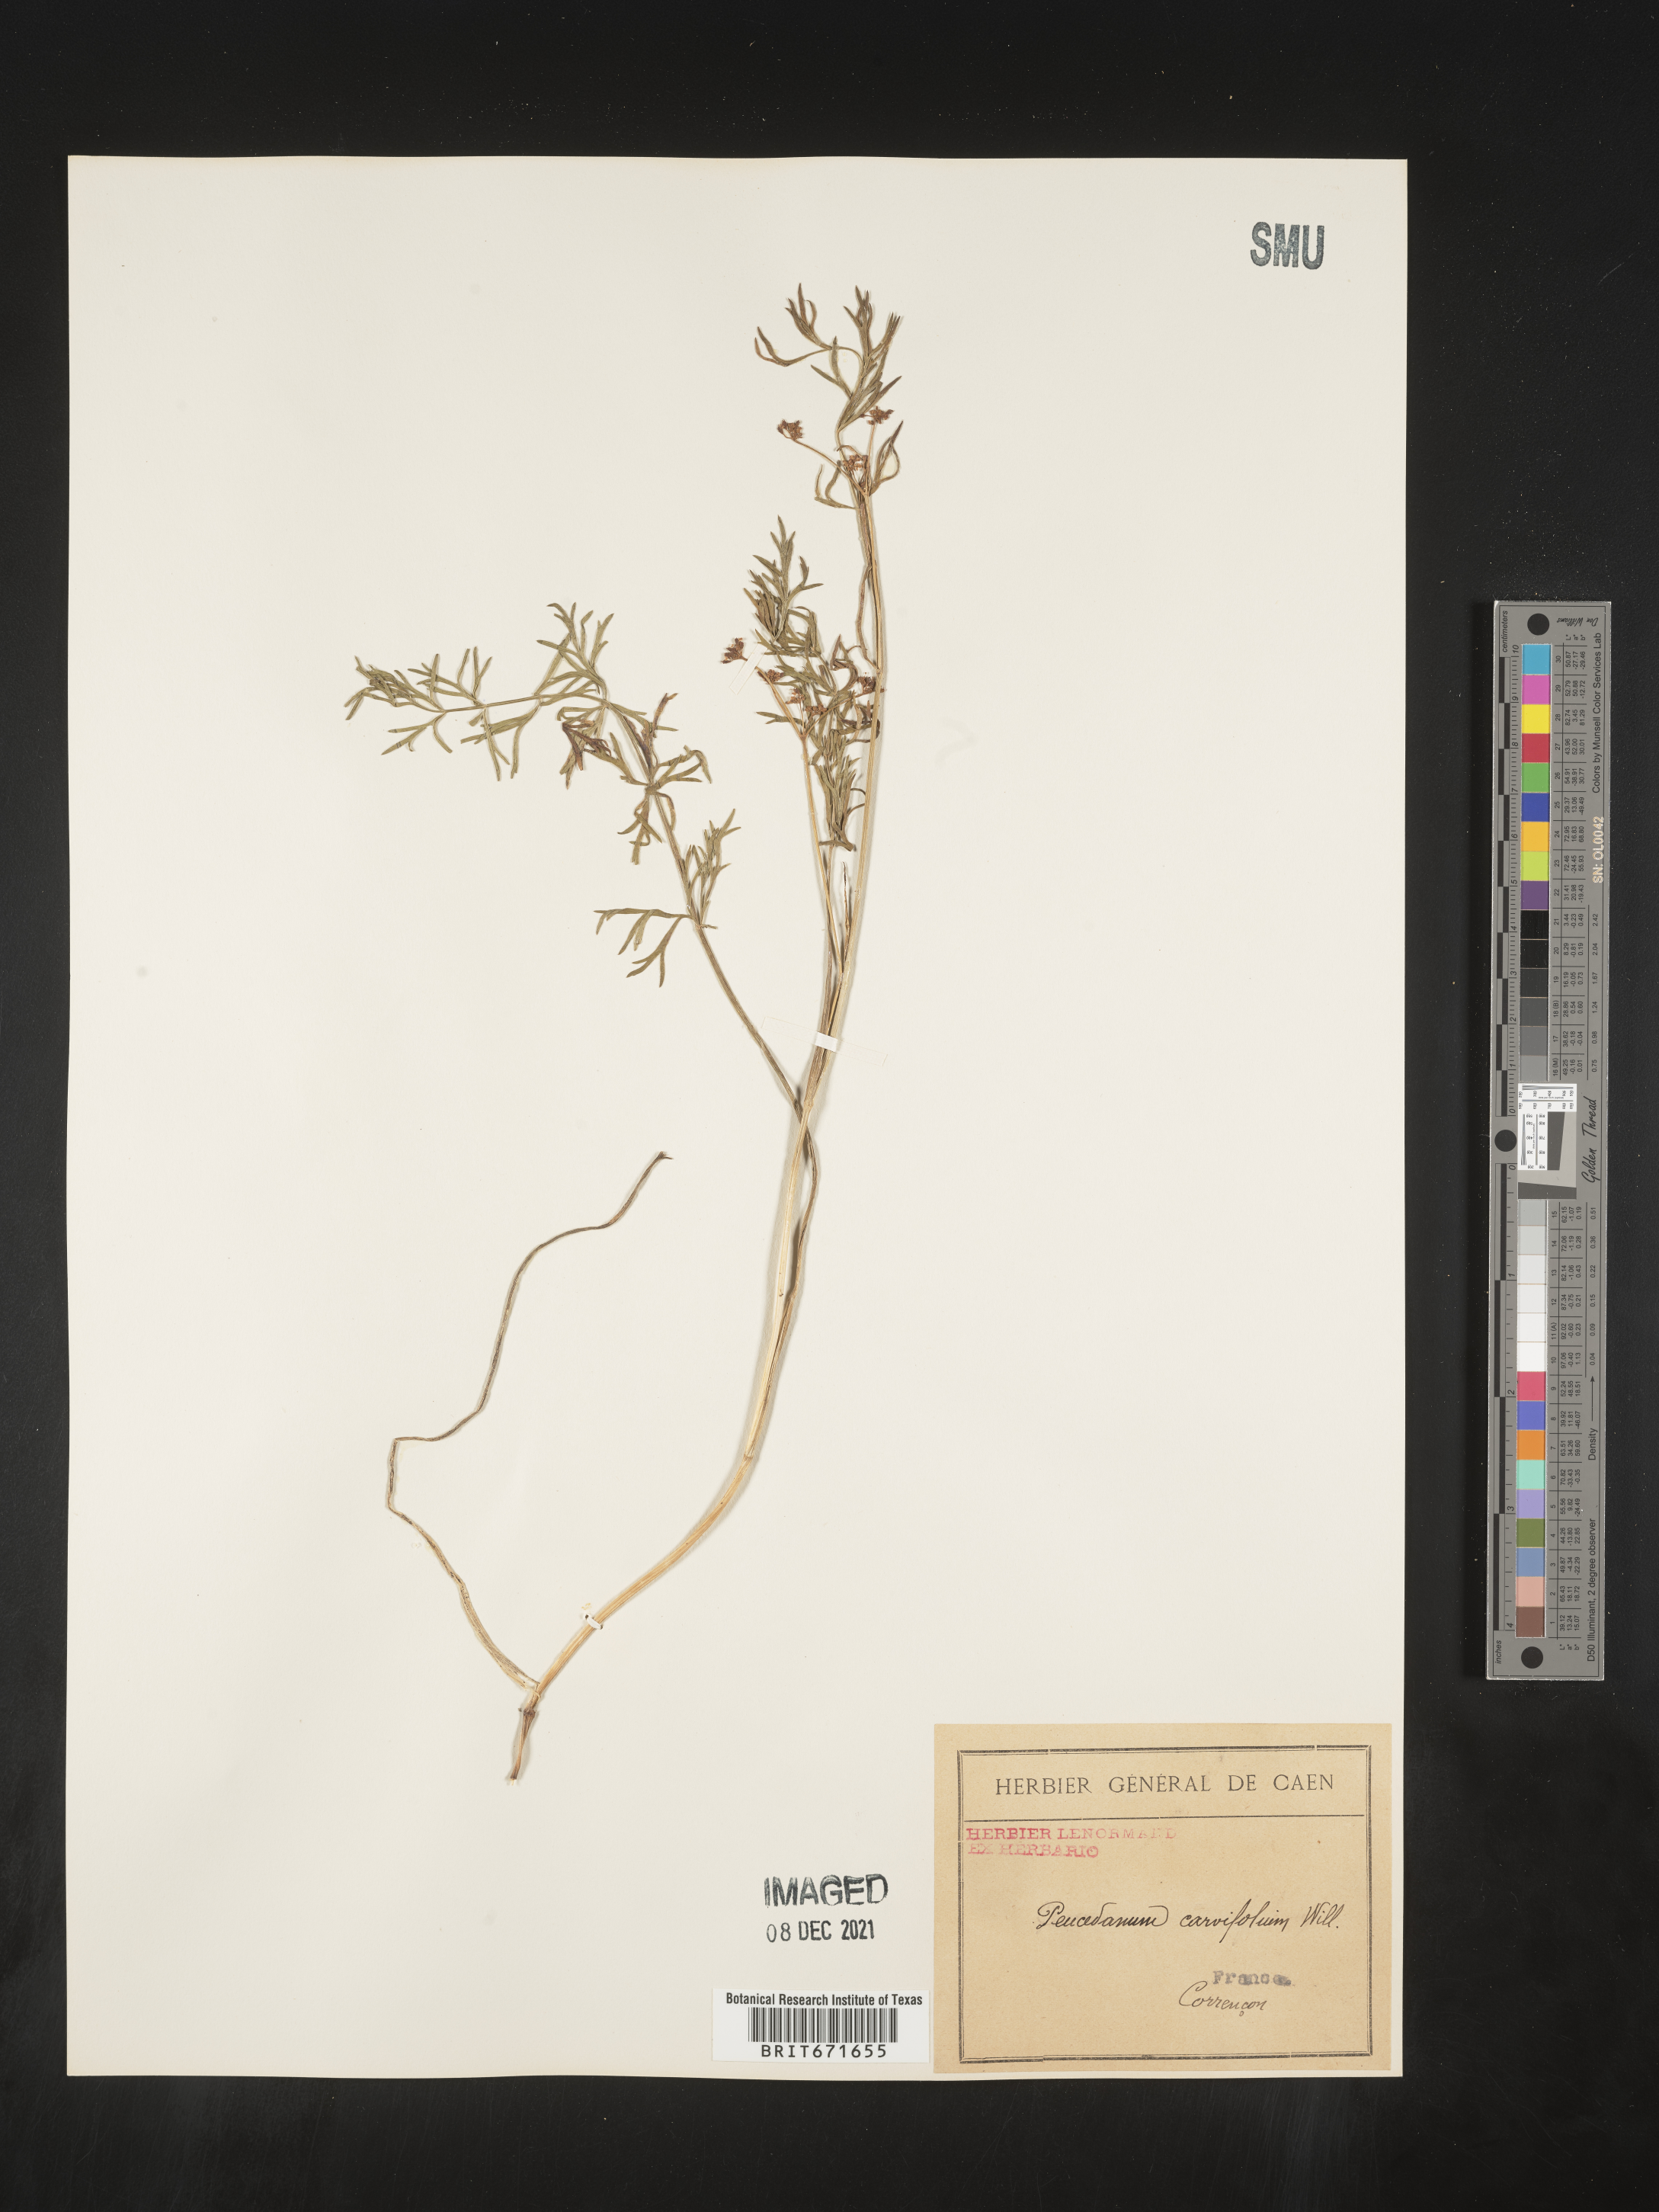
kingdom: Plantae
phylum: Tracheophyta
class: Magnoliopsida
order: Apiales
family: Apiaceae
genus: Peucedanum
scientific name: Peucedanum
